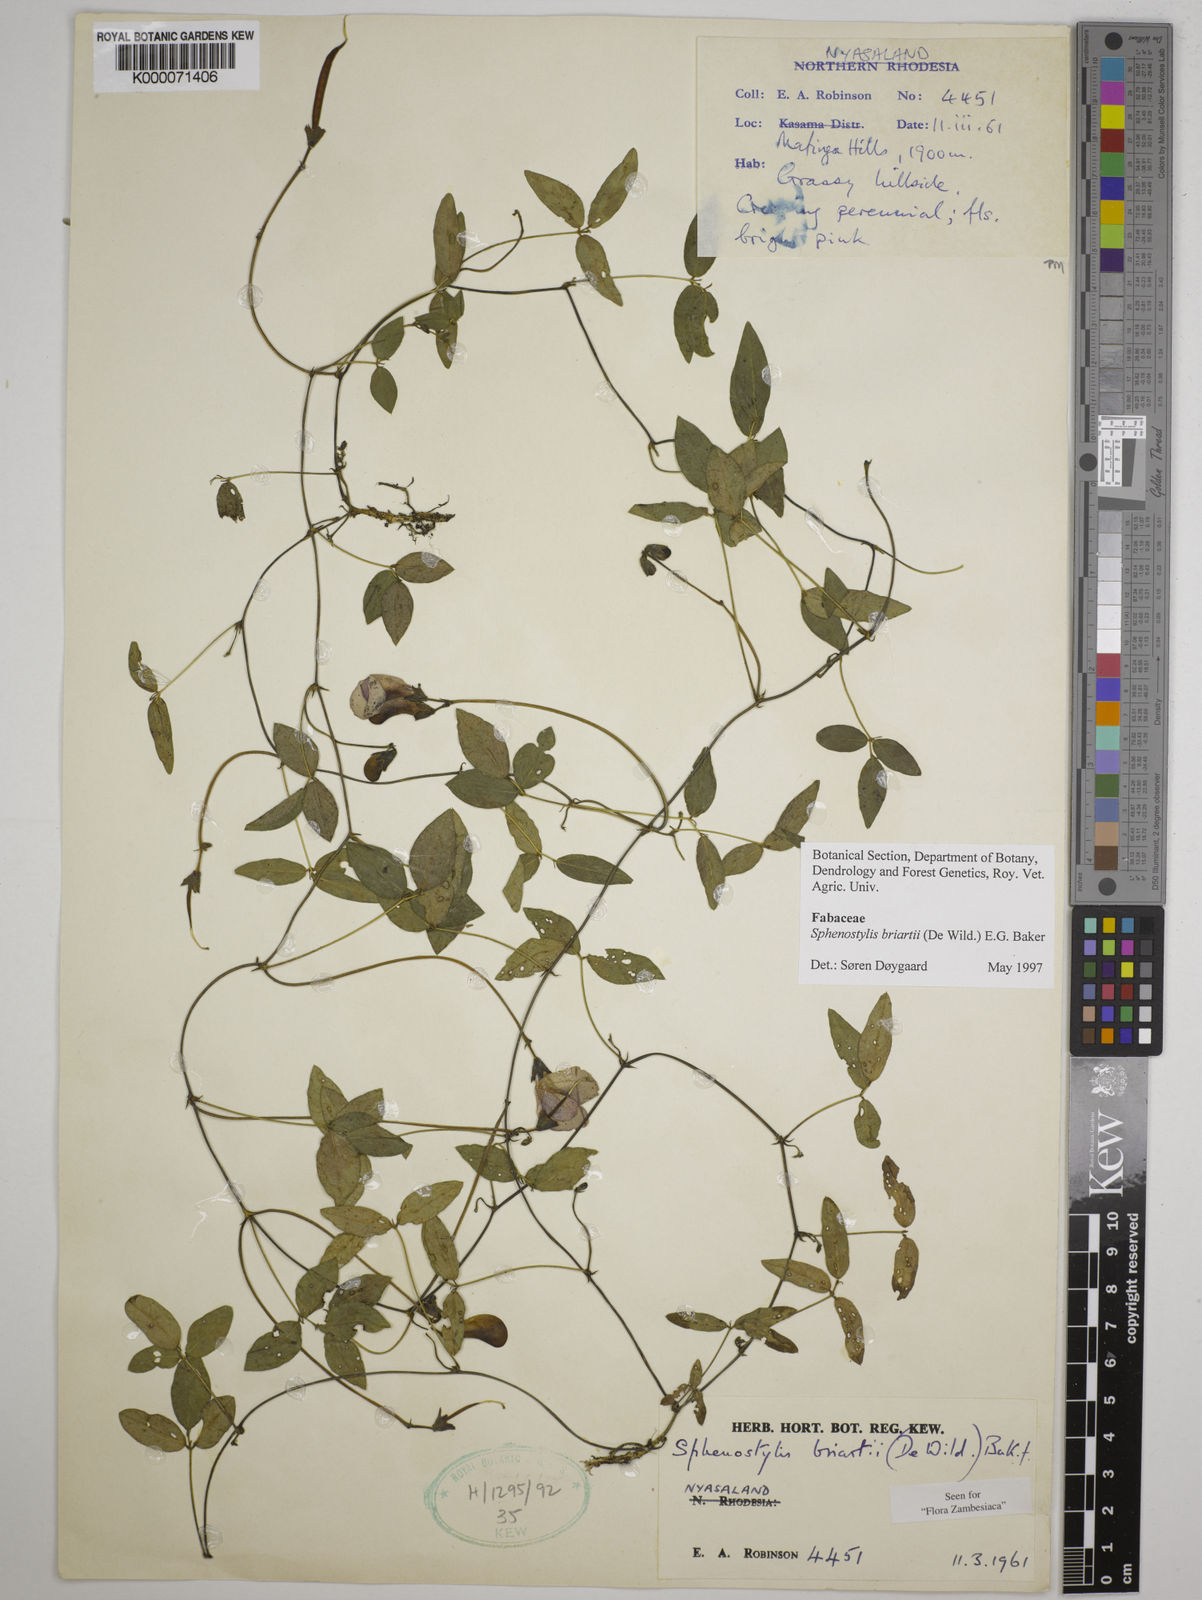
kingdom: Plantae
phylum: Tracheophyta
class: Magnoliopsida
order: Fabales
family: Fabaceae
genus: Sphenostylis
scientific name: Sphenostylis briartii
